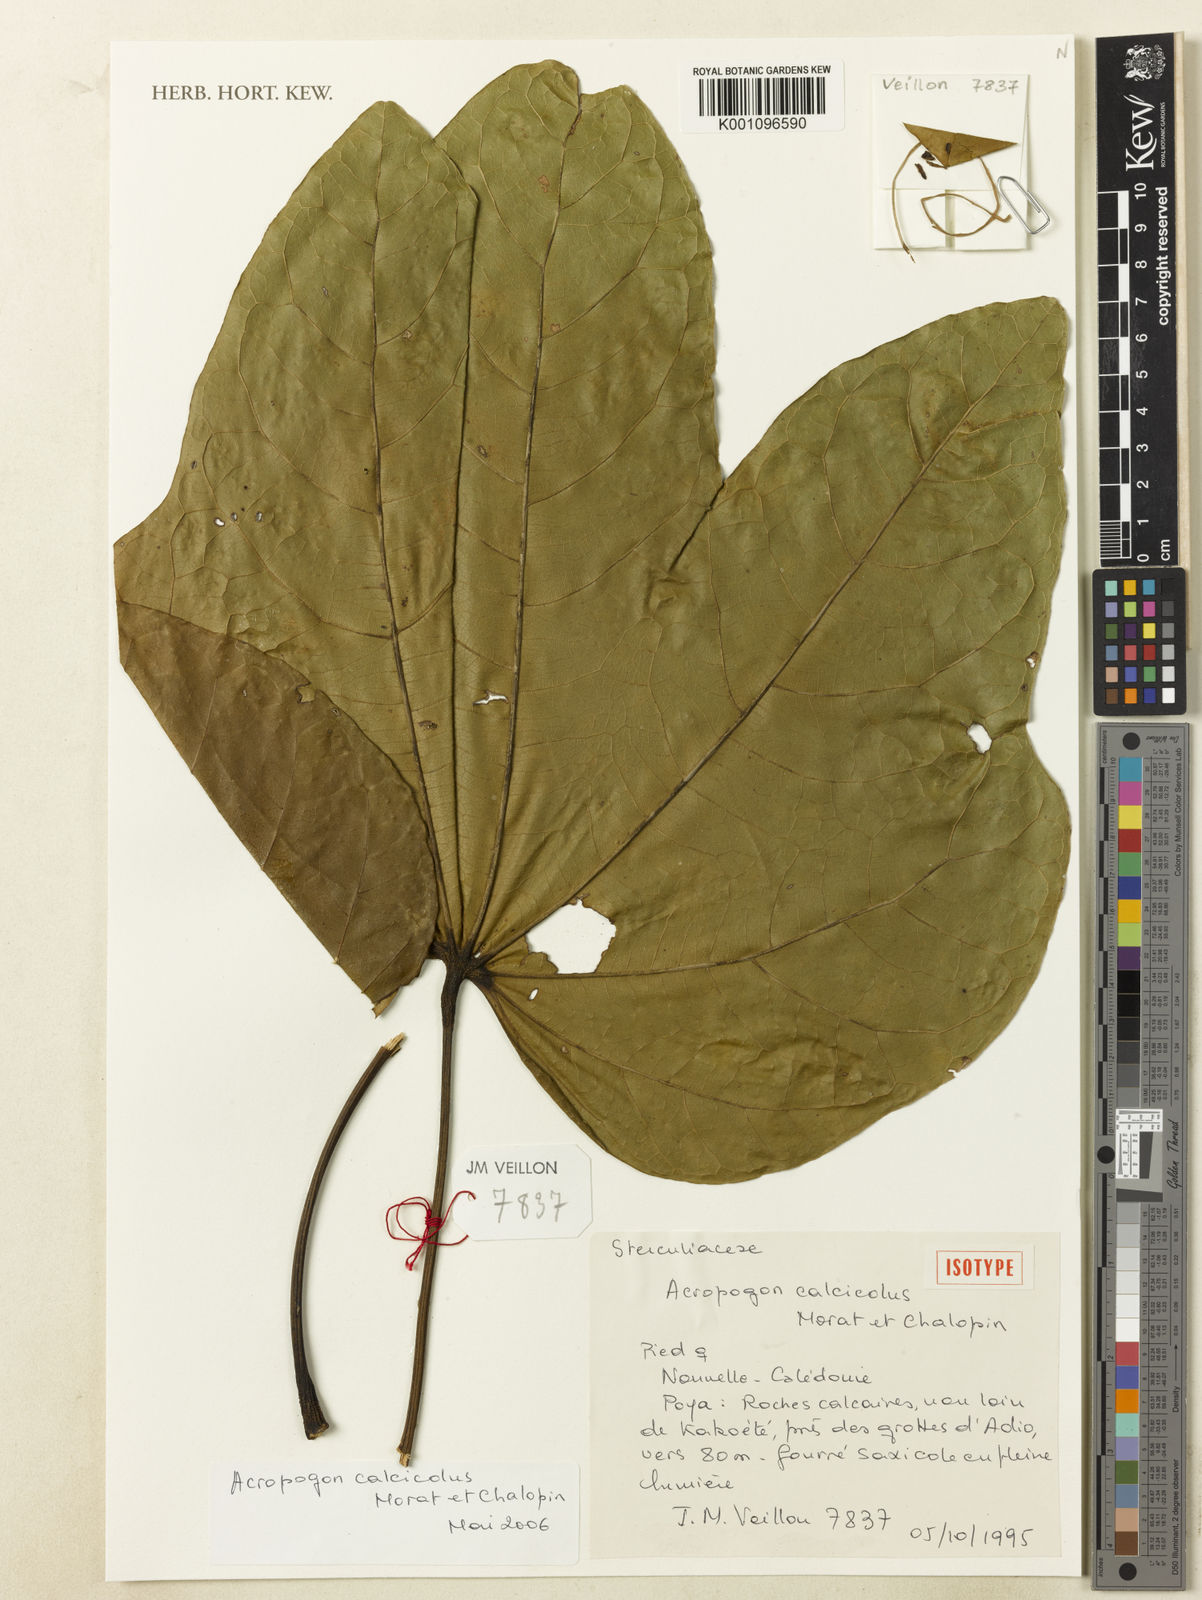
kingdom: Plantae
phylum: Tracheophyta
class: Magnoliopsida
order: Malvales
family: Malvaceae
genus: Acropogon
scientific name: Acropogon calcicola
